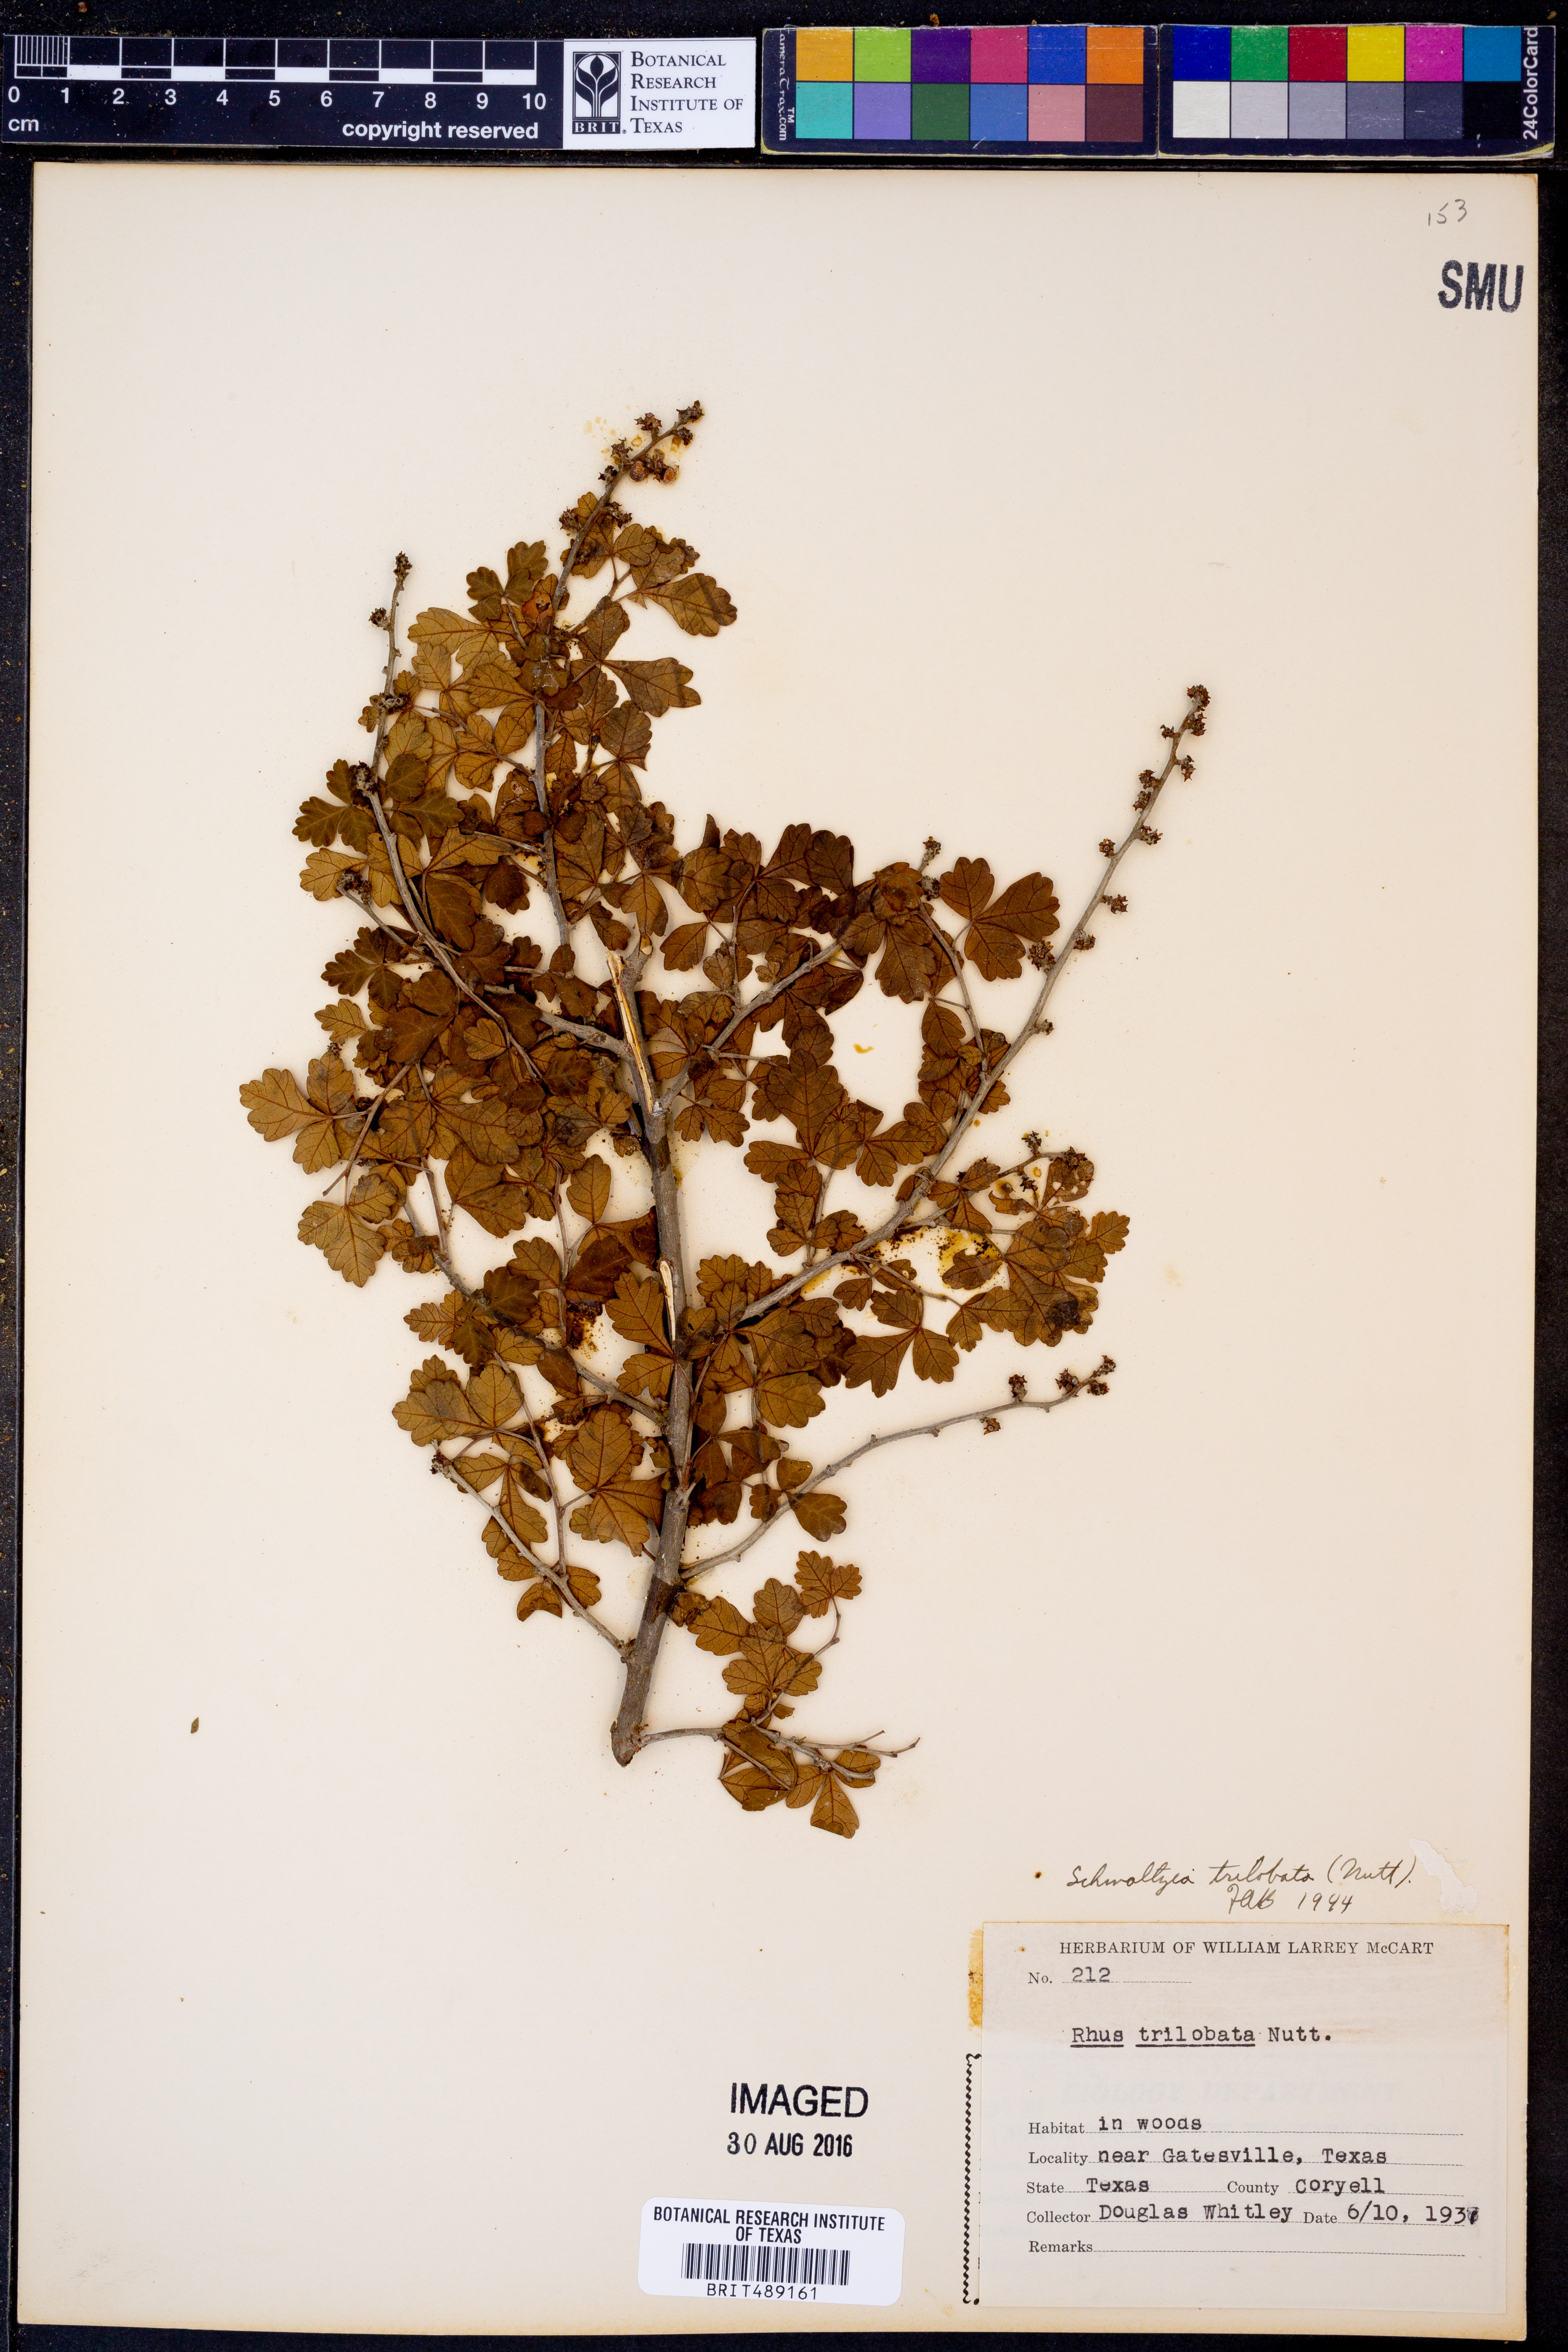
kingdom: Plantae
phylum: Tracheophyta
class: Magnoliopsida
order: Sapindales
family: Anacardiaceae
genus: Rhus
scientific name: Rhus trilobata
